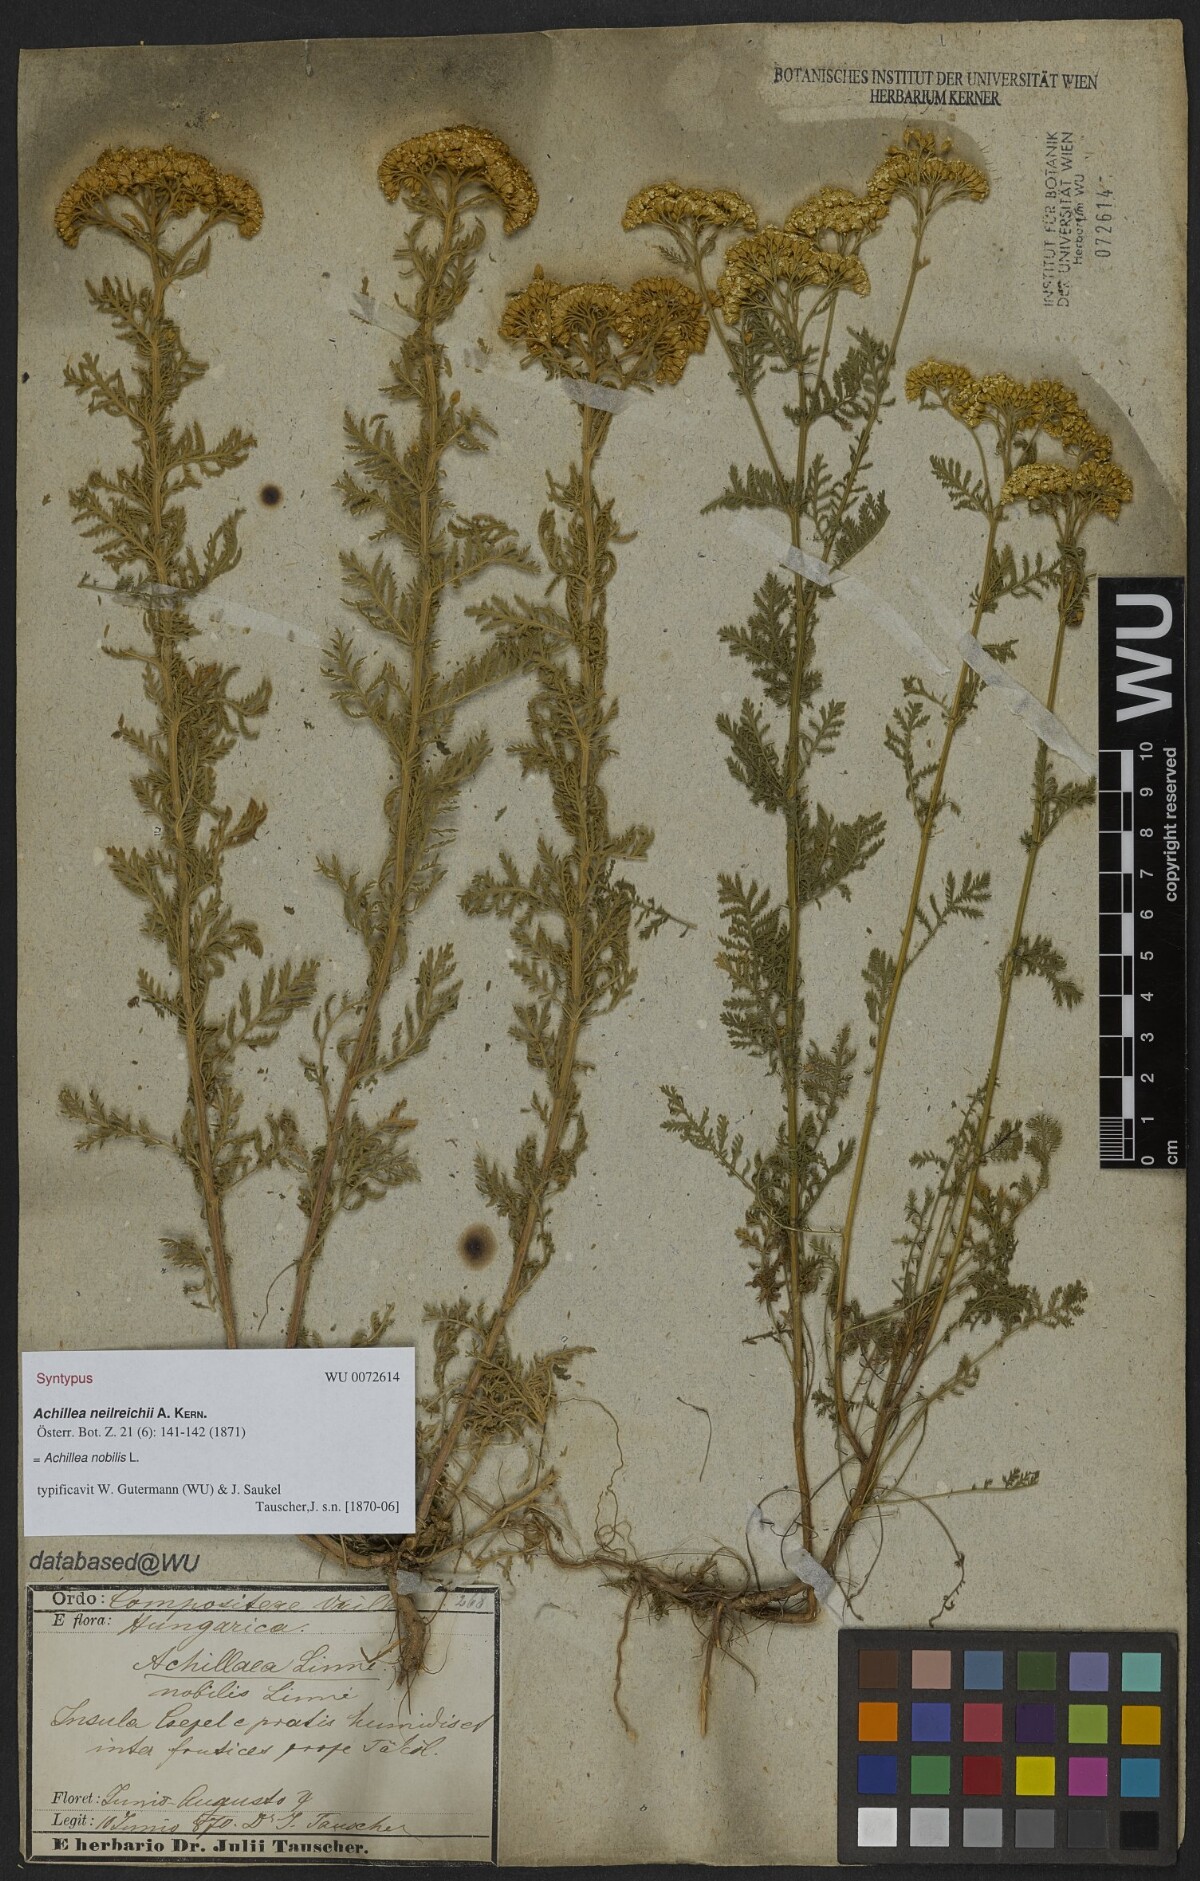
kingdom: Plantae
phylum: Tracheophyta
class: Magnoliopsida
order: Asterales
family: Asteraceae
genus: Achillea
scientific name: Achillea nobilis
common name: Noble yarrow
